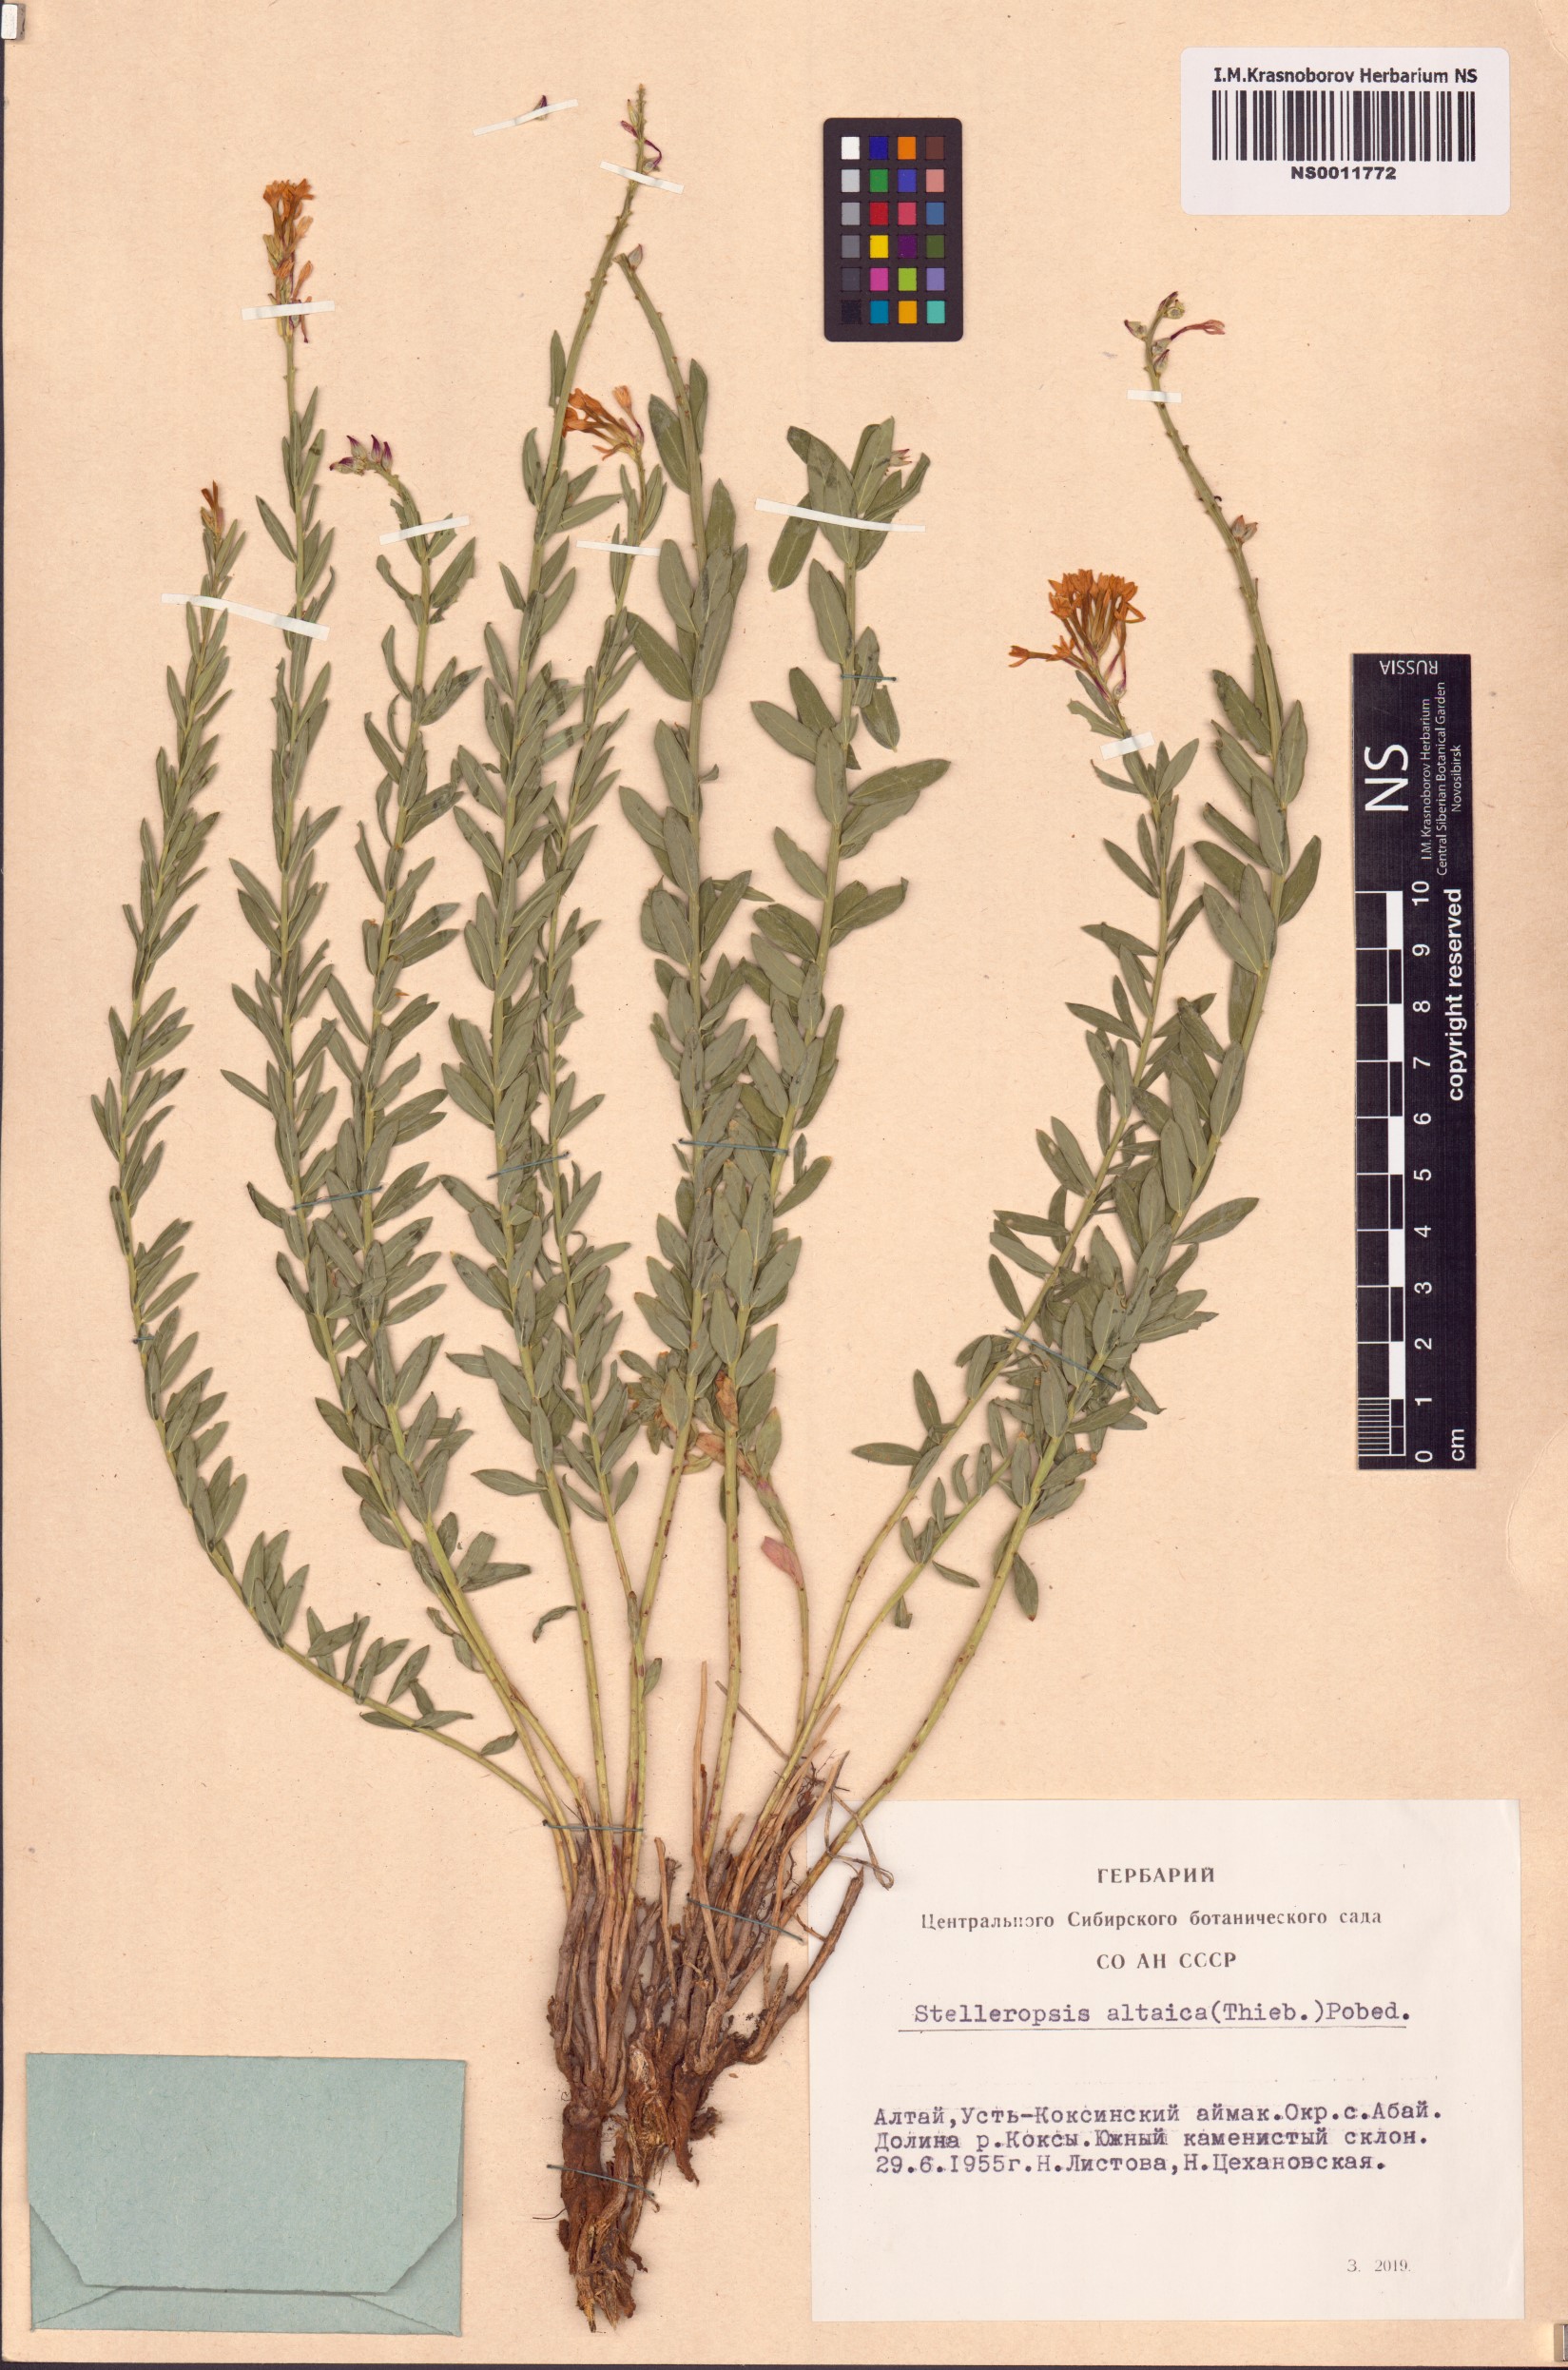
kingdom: Plantae
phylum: Tracheophyta
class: Magnoliopsida
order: Malvales
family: Thymelaeaceae
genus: Diarthron
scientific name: Diarthron altaicum
